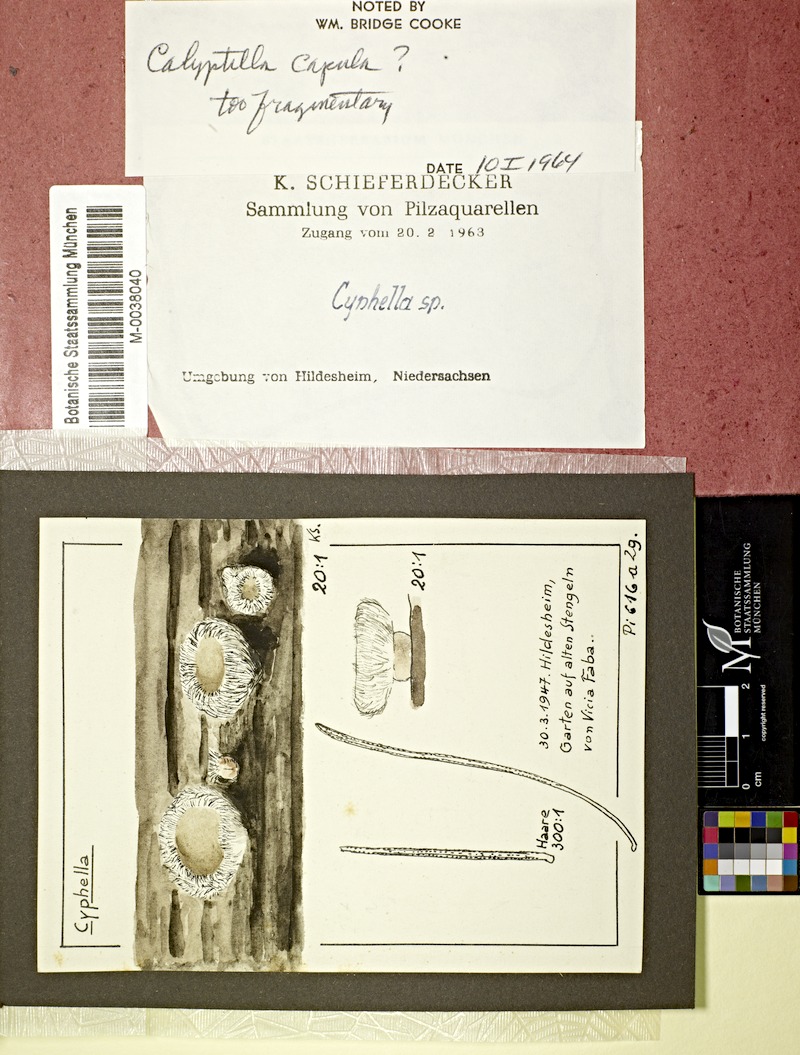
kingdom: Fungi
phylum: Basidiomycota
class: Agaricomycetes
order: Agaricales
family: Cyphellaceae
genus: Cyphella
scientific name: Cyphella
